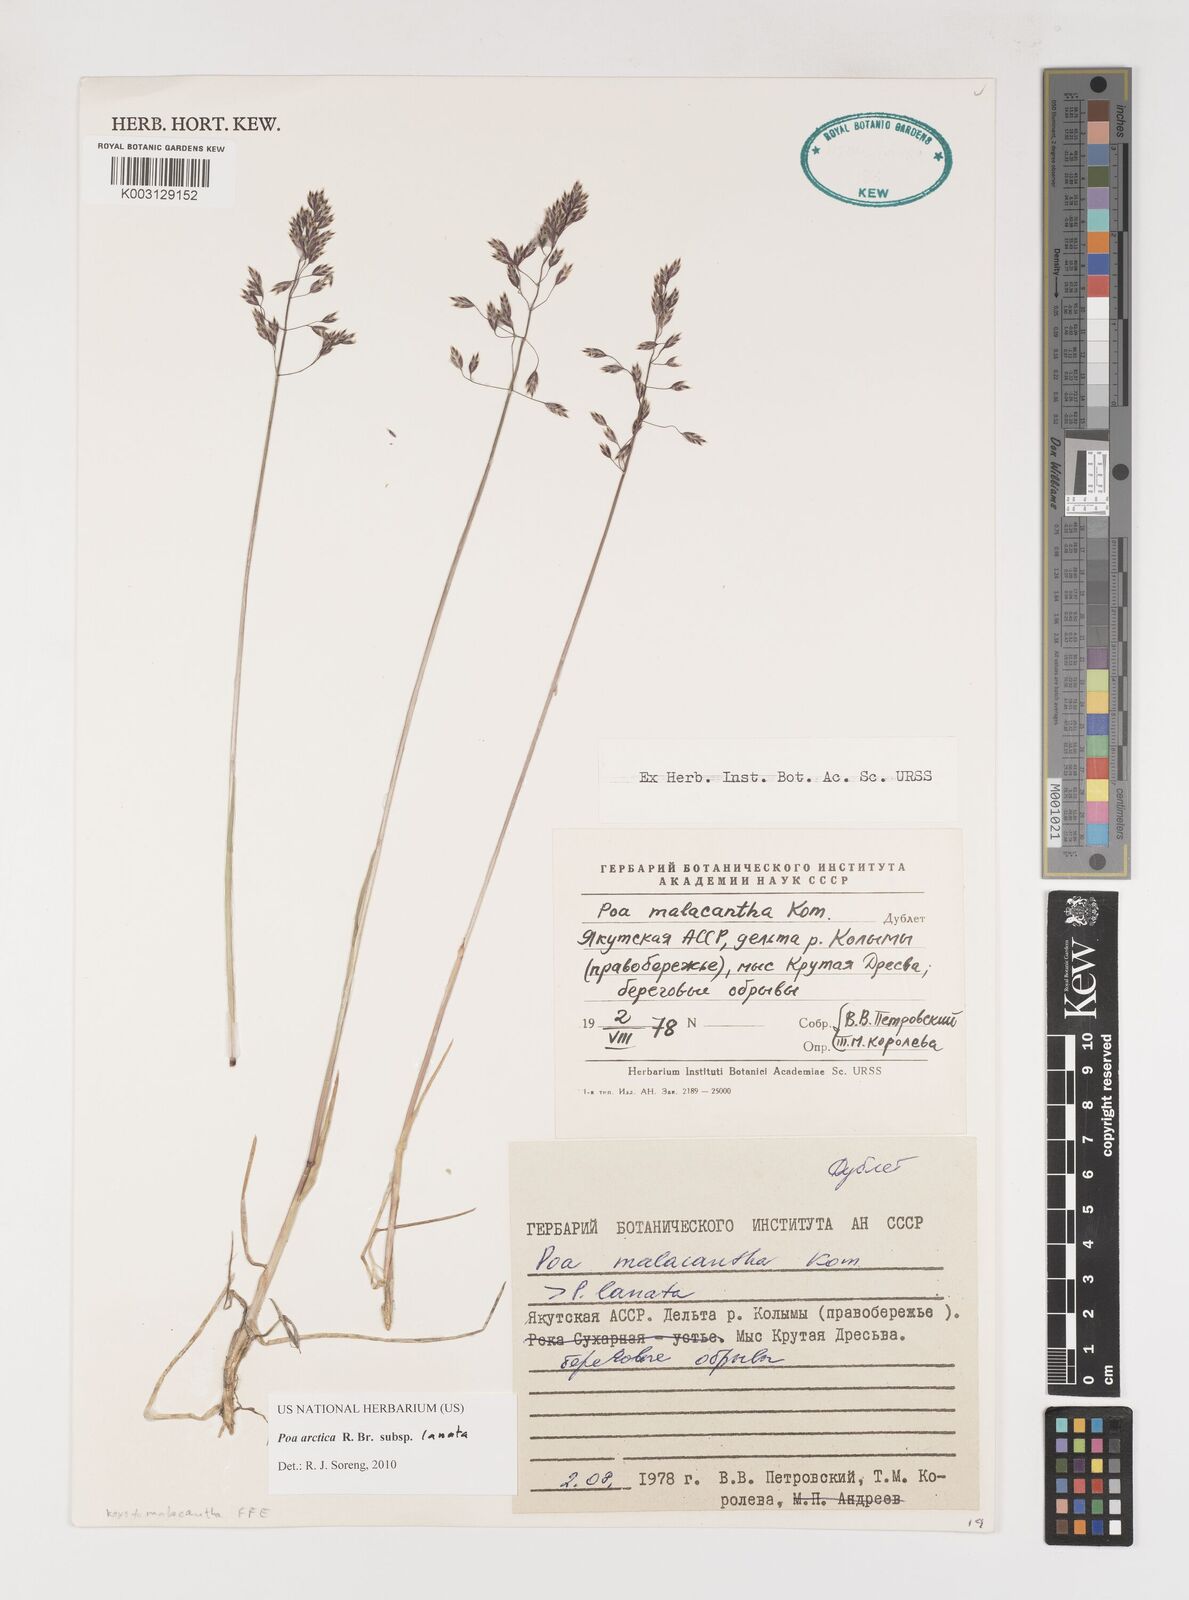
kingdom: Plantae
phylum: Tracheophyta
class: Liliopsida
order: Poales
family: Poaceae
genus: Poa
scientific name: Poa arctica
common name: Arctic bluegrass
